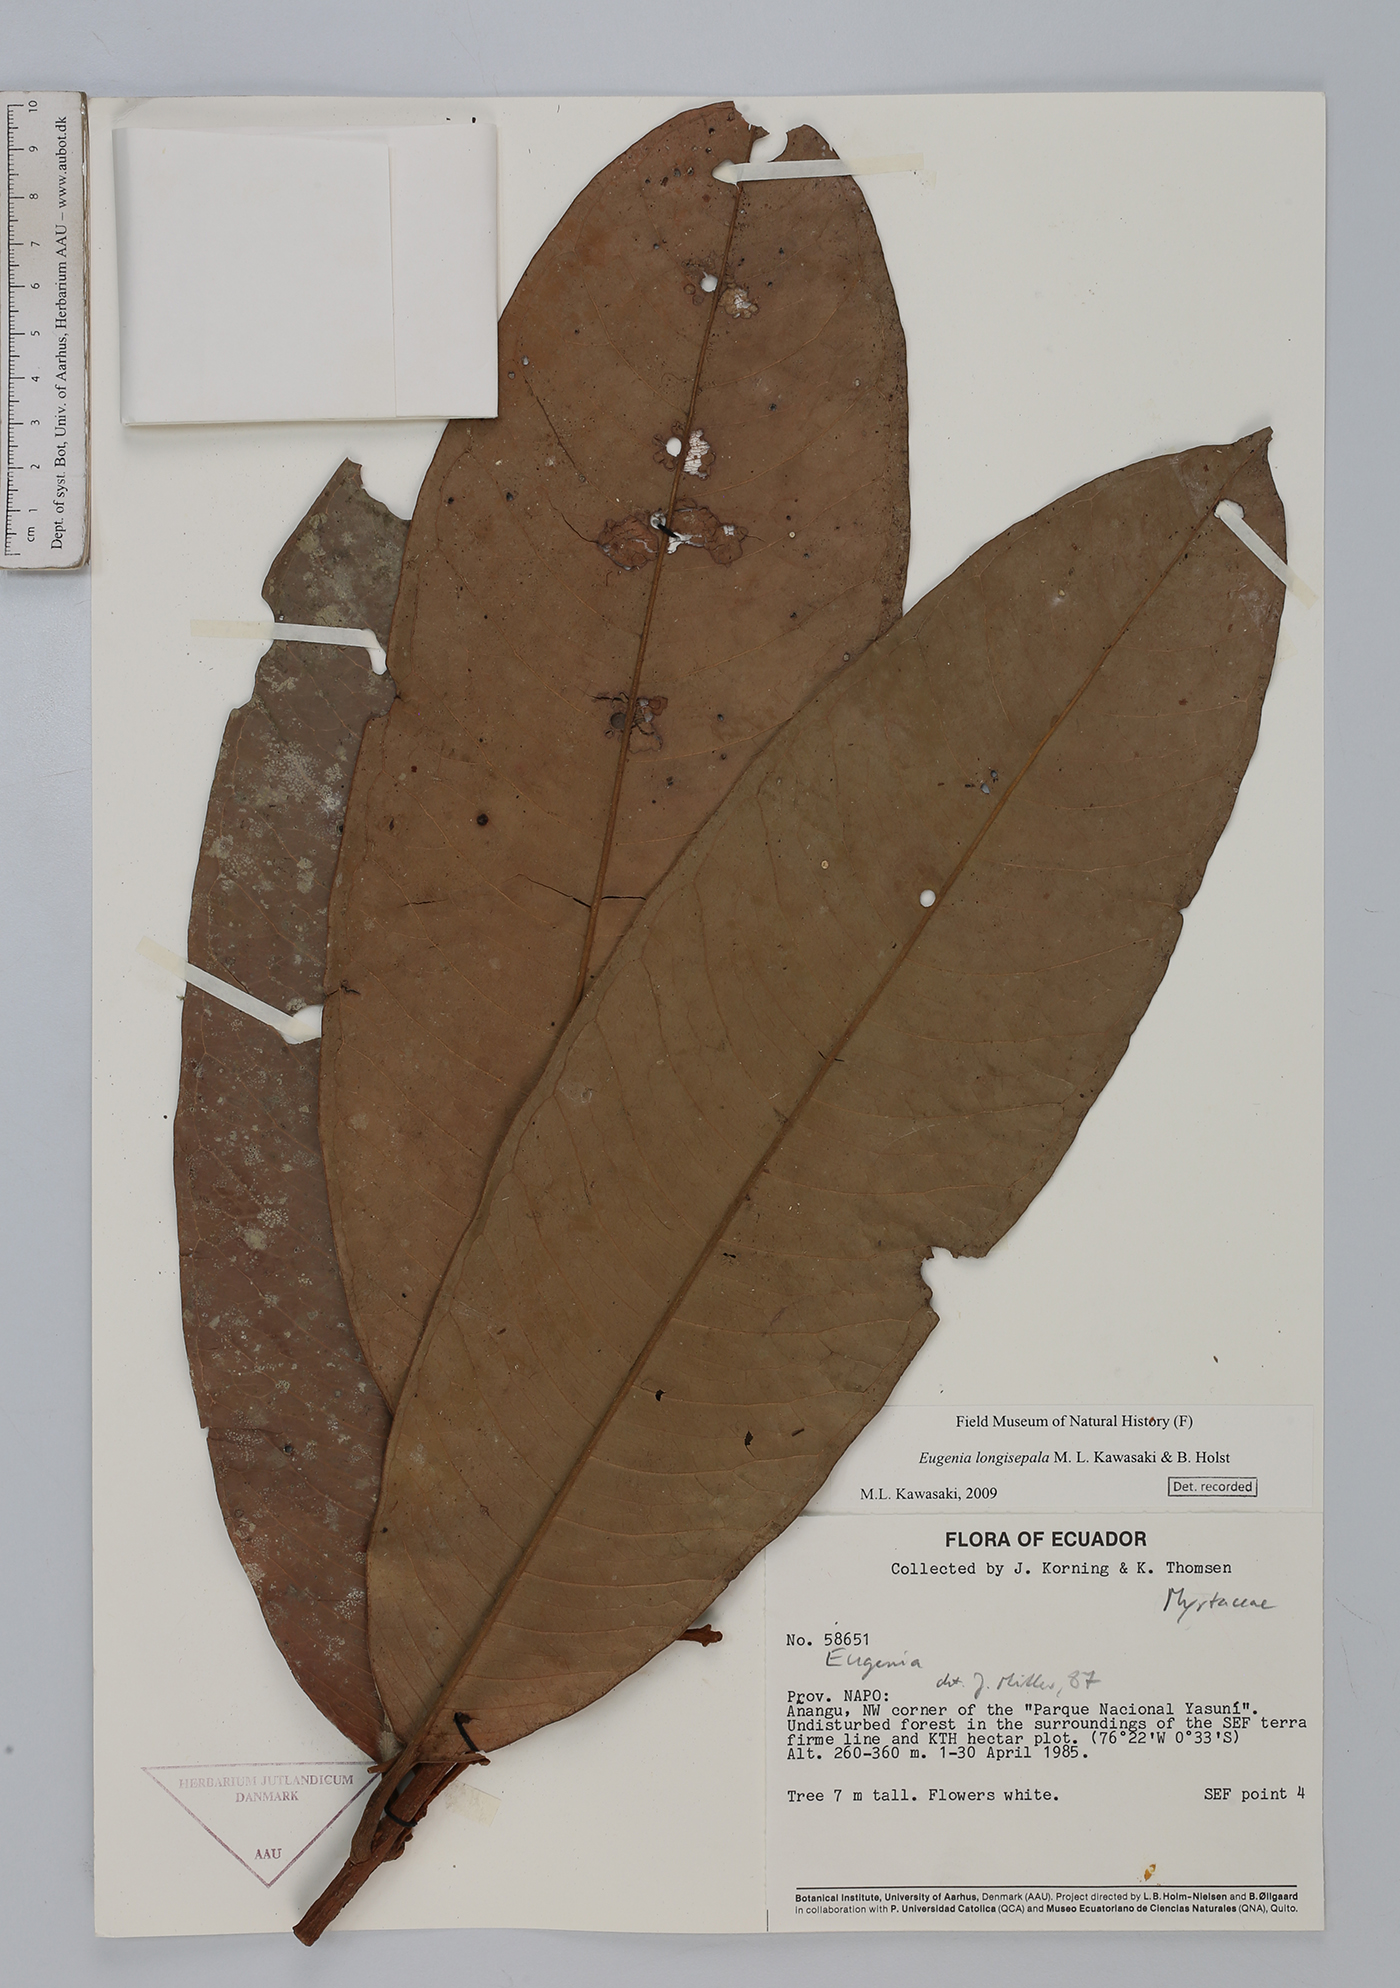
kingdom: Plantae
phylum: Tracheophyta
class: Magnoliopsida
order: Myrtales
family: Myrtaceae
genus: Eugenia
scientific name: Eugenia longisepala
